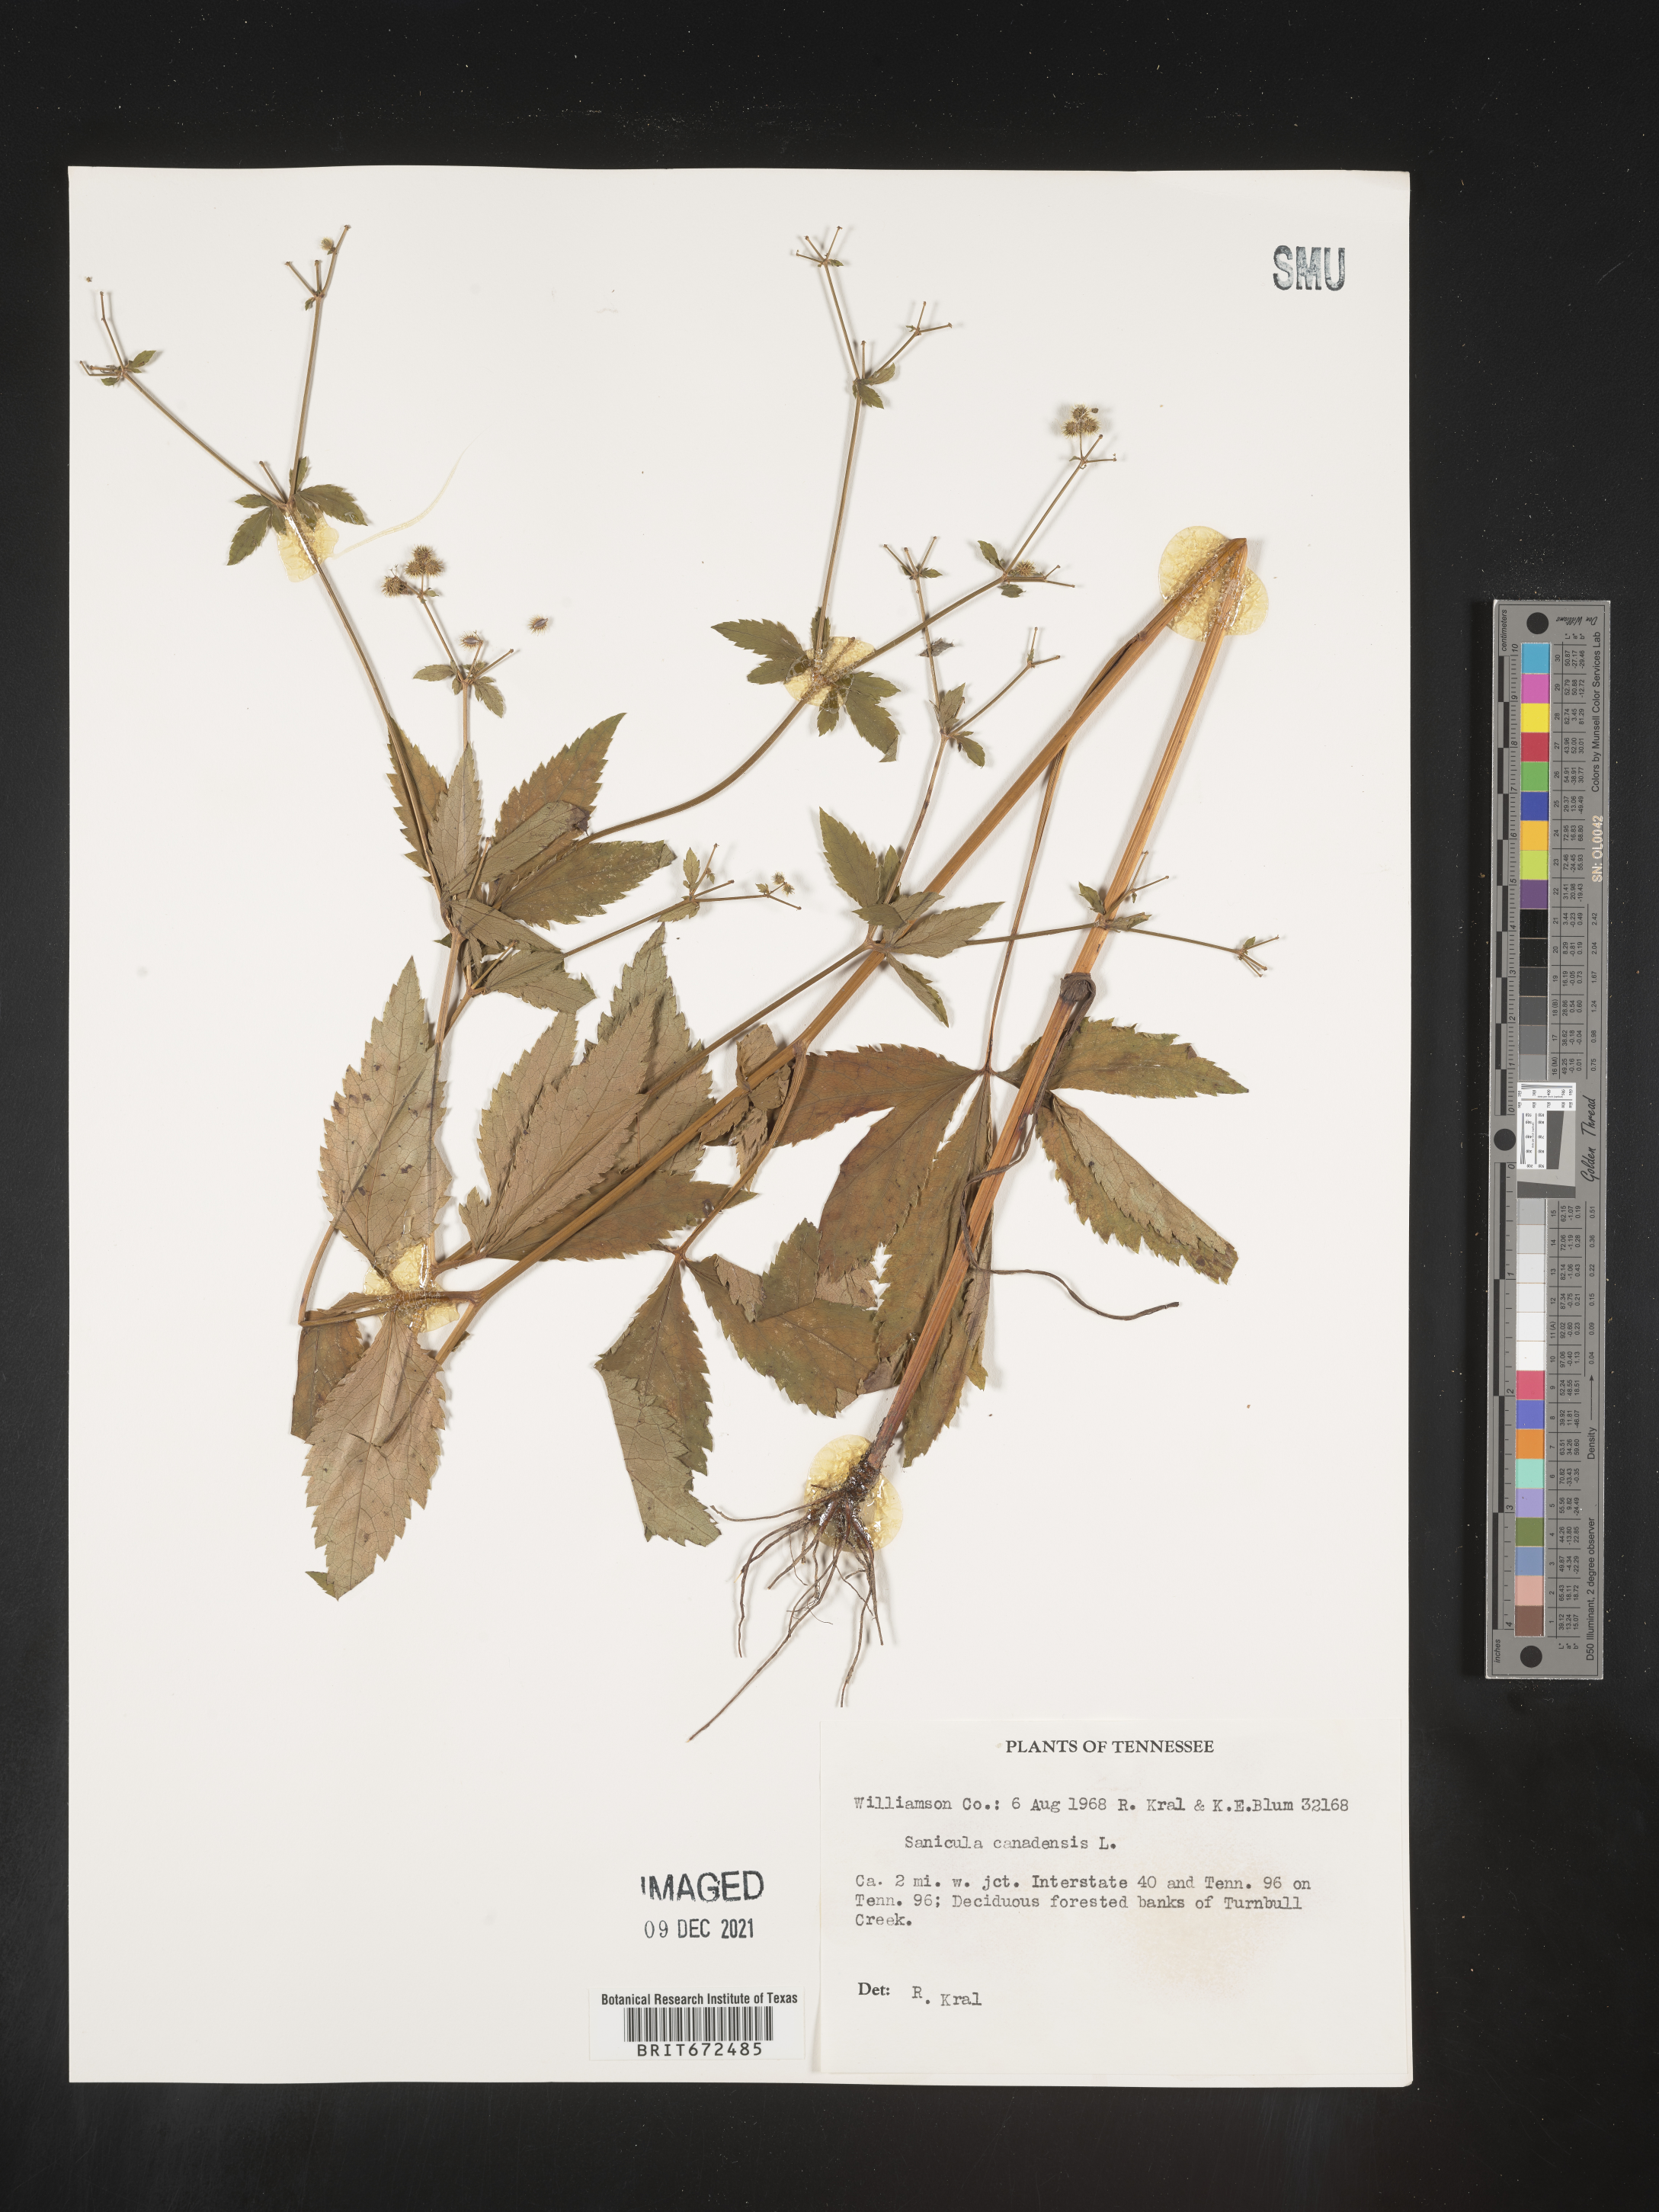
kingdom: Plantae
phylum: Tracheophyta
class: Magnoliopsida
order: Apiales
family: Apiaceae
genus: Sanicula
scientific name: Sanicula canadensis
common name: Canada sanicle
